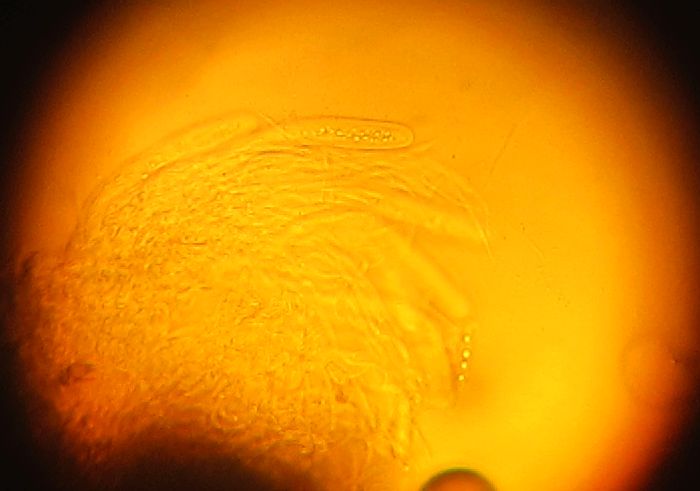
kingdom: Plantae
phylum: Bryophyta
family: Dothideomycetes
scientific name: Dothideomycetes
